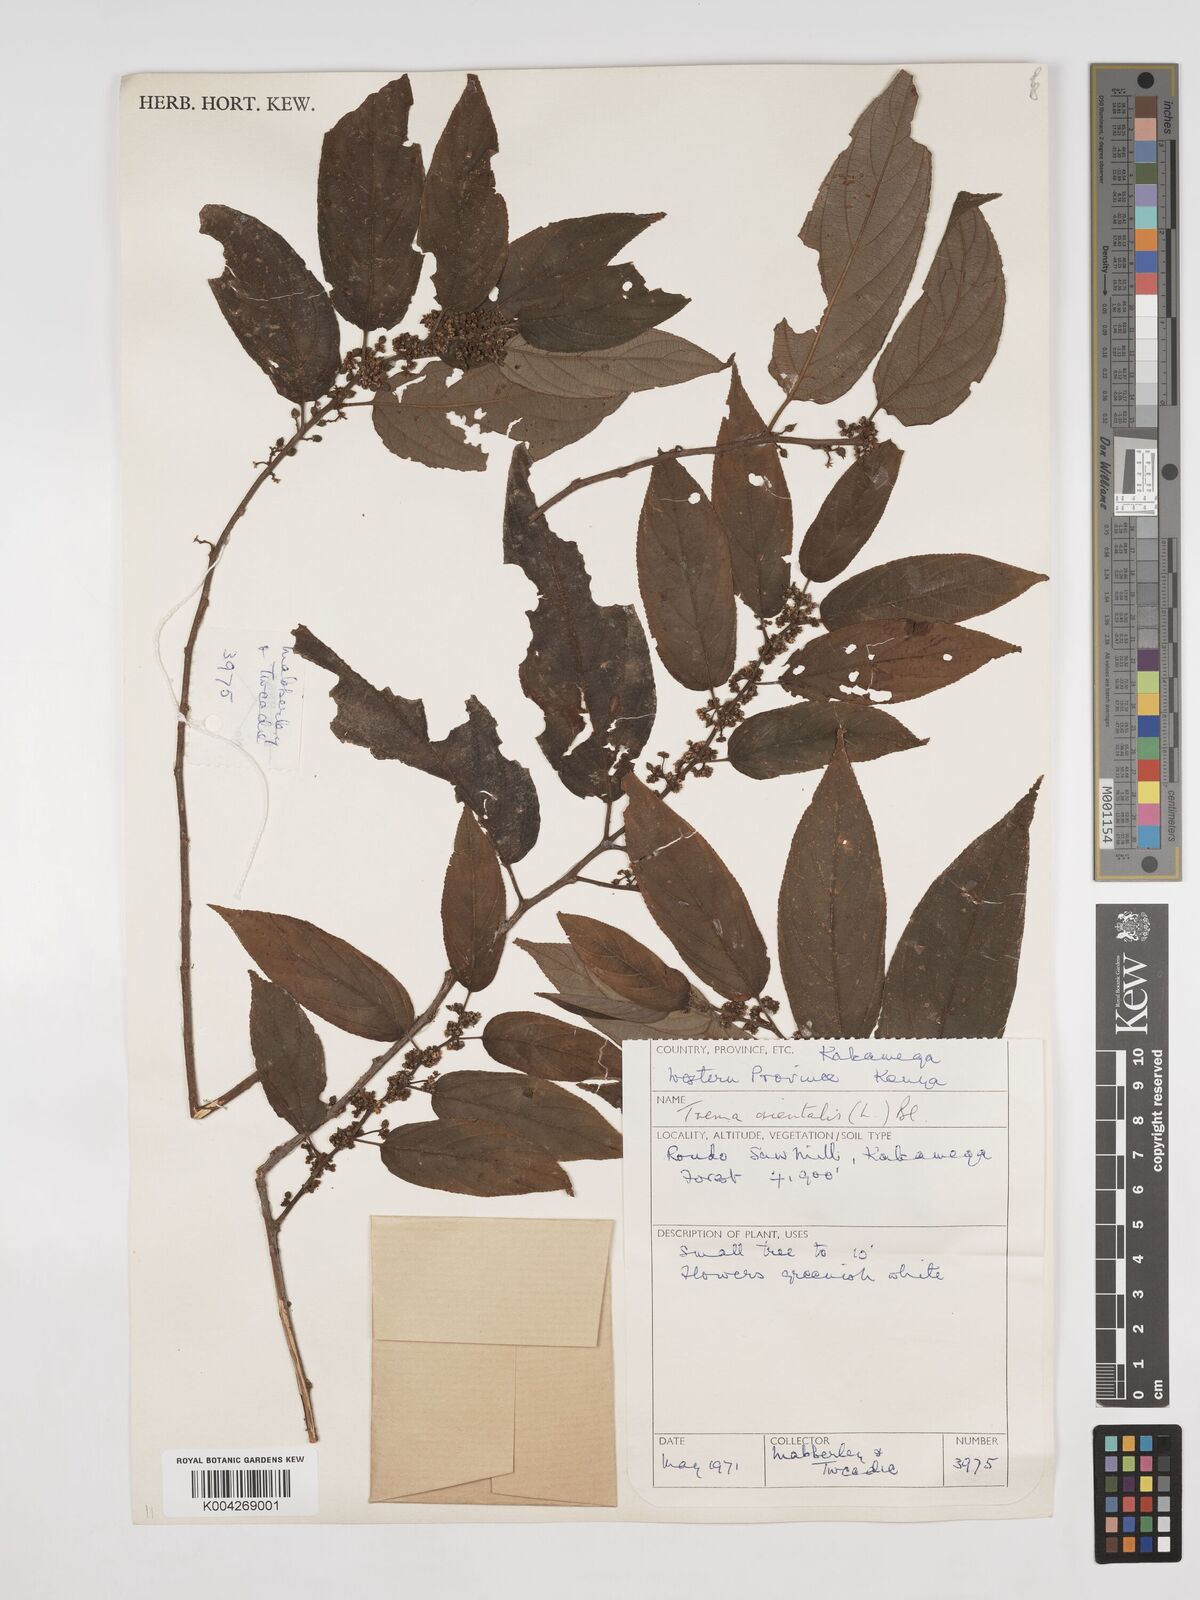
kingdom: Plantae
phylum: Tracheophyta
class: Magnoliopsida
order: Rosales
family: Cannabaceae
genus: Trema
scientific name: Trema orientale
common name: Indian charcoal tree
